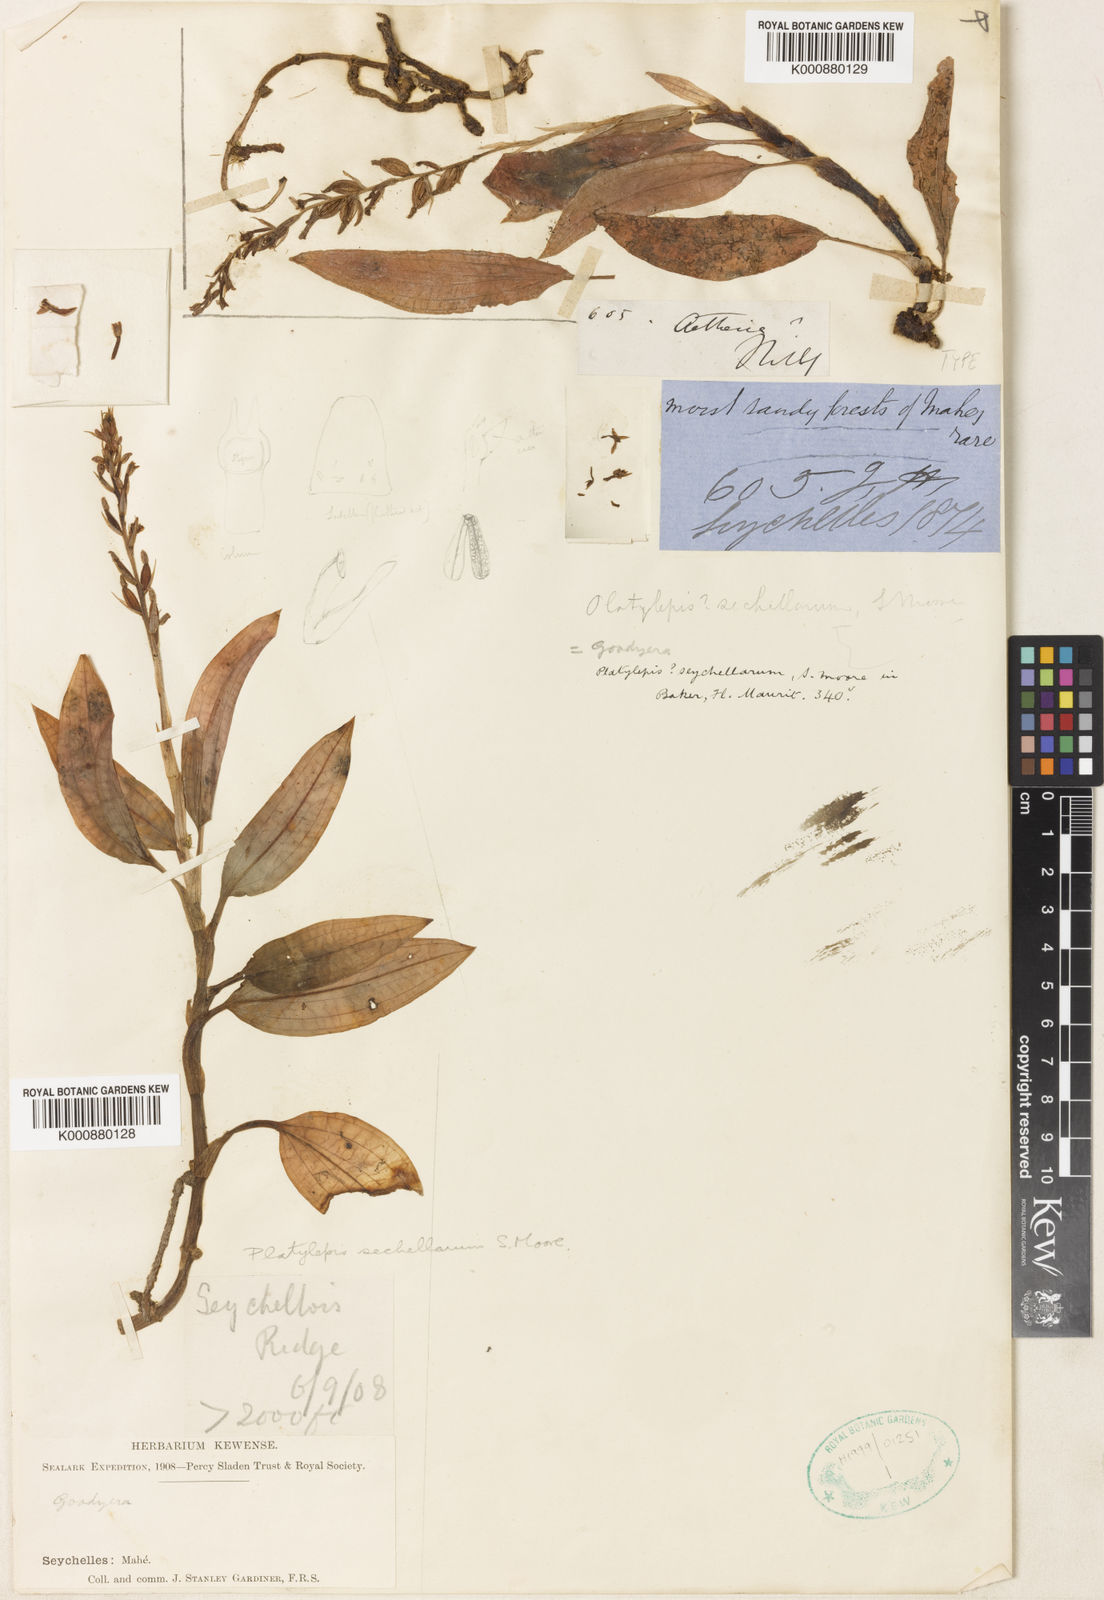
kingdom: Plantae
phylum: Tracheophyta
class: Liliopsida
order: Asparagales
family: Orchidaceae
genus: Goodyera
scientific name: Goodyera sechellarum
